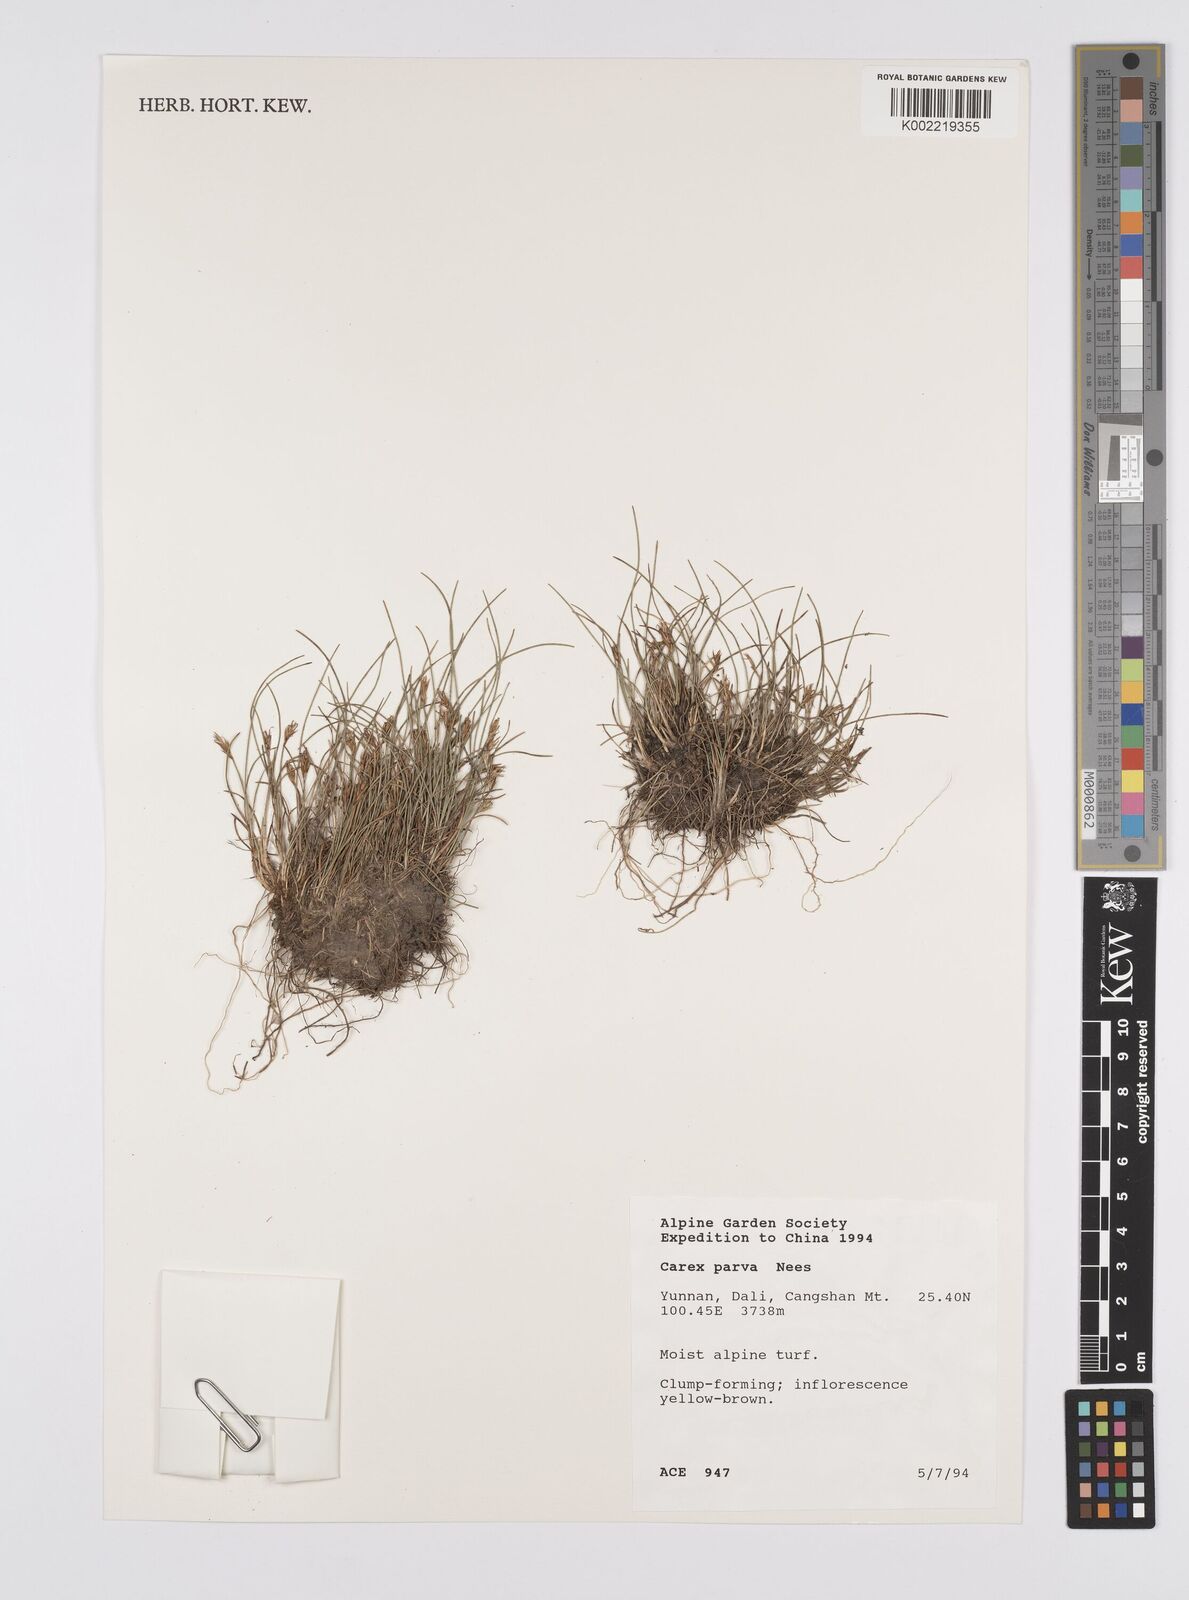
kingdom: Plantae
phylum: Tracheophyta
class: Liliopsida
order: Poales
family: Cyperaceae
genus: Carex
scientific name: Carex parva
